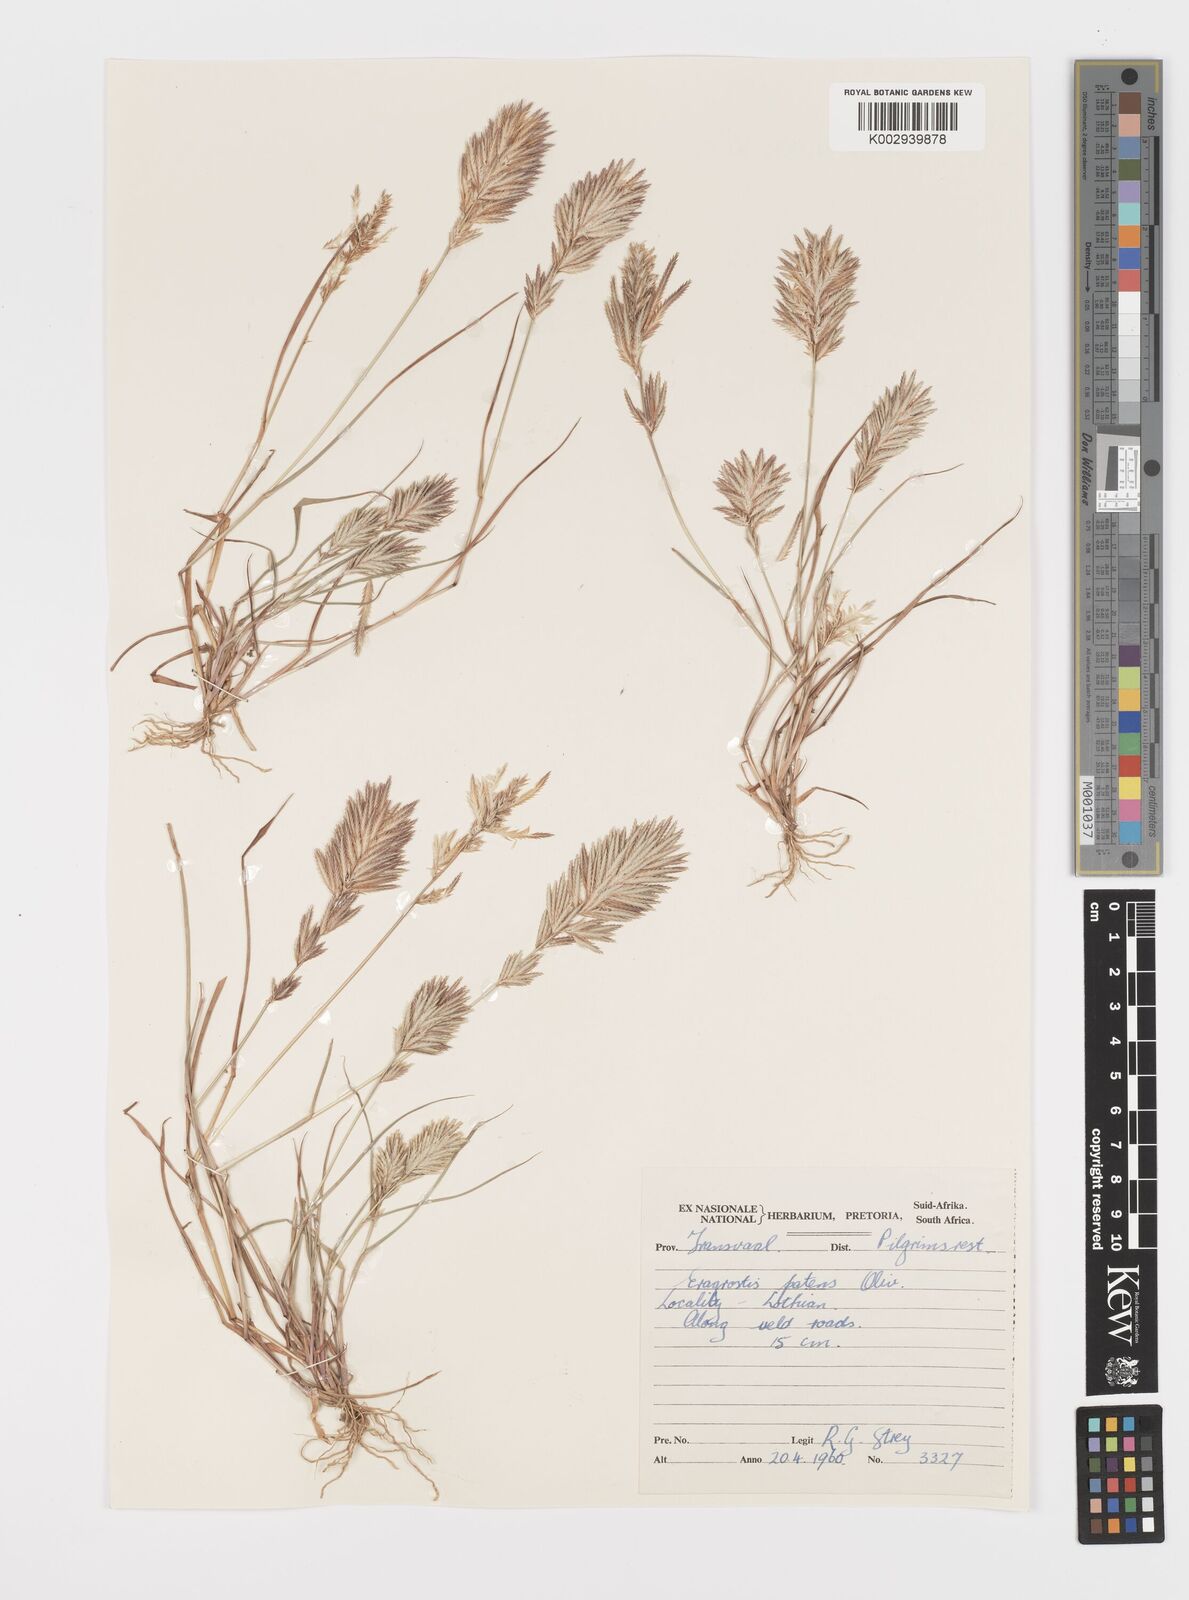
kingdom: Plantae
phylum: Tracheophyta
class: Liliopsida
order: Poales
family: Poaceae
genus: Eragrostis
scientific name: Eragrostis patens
